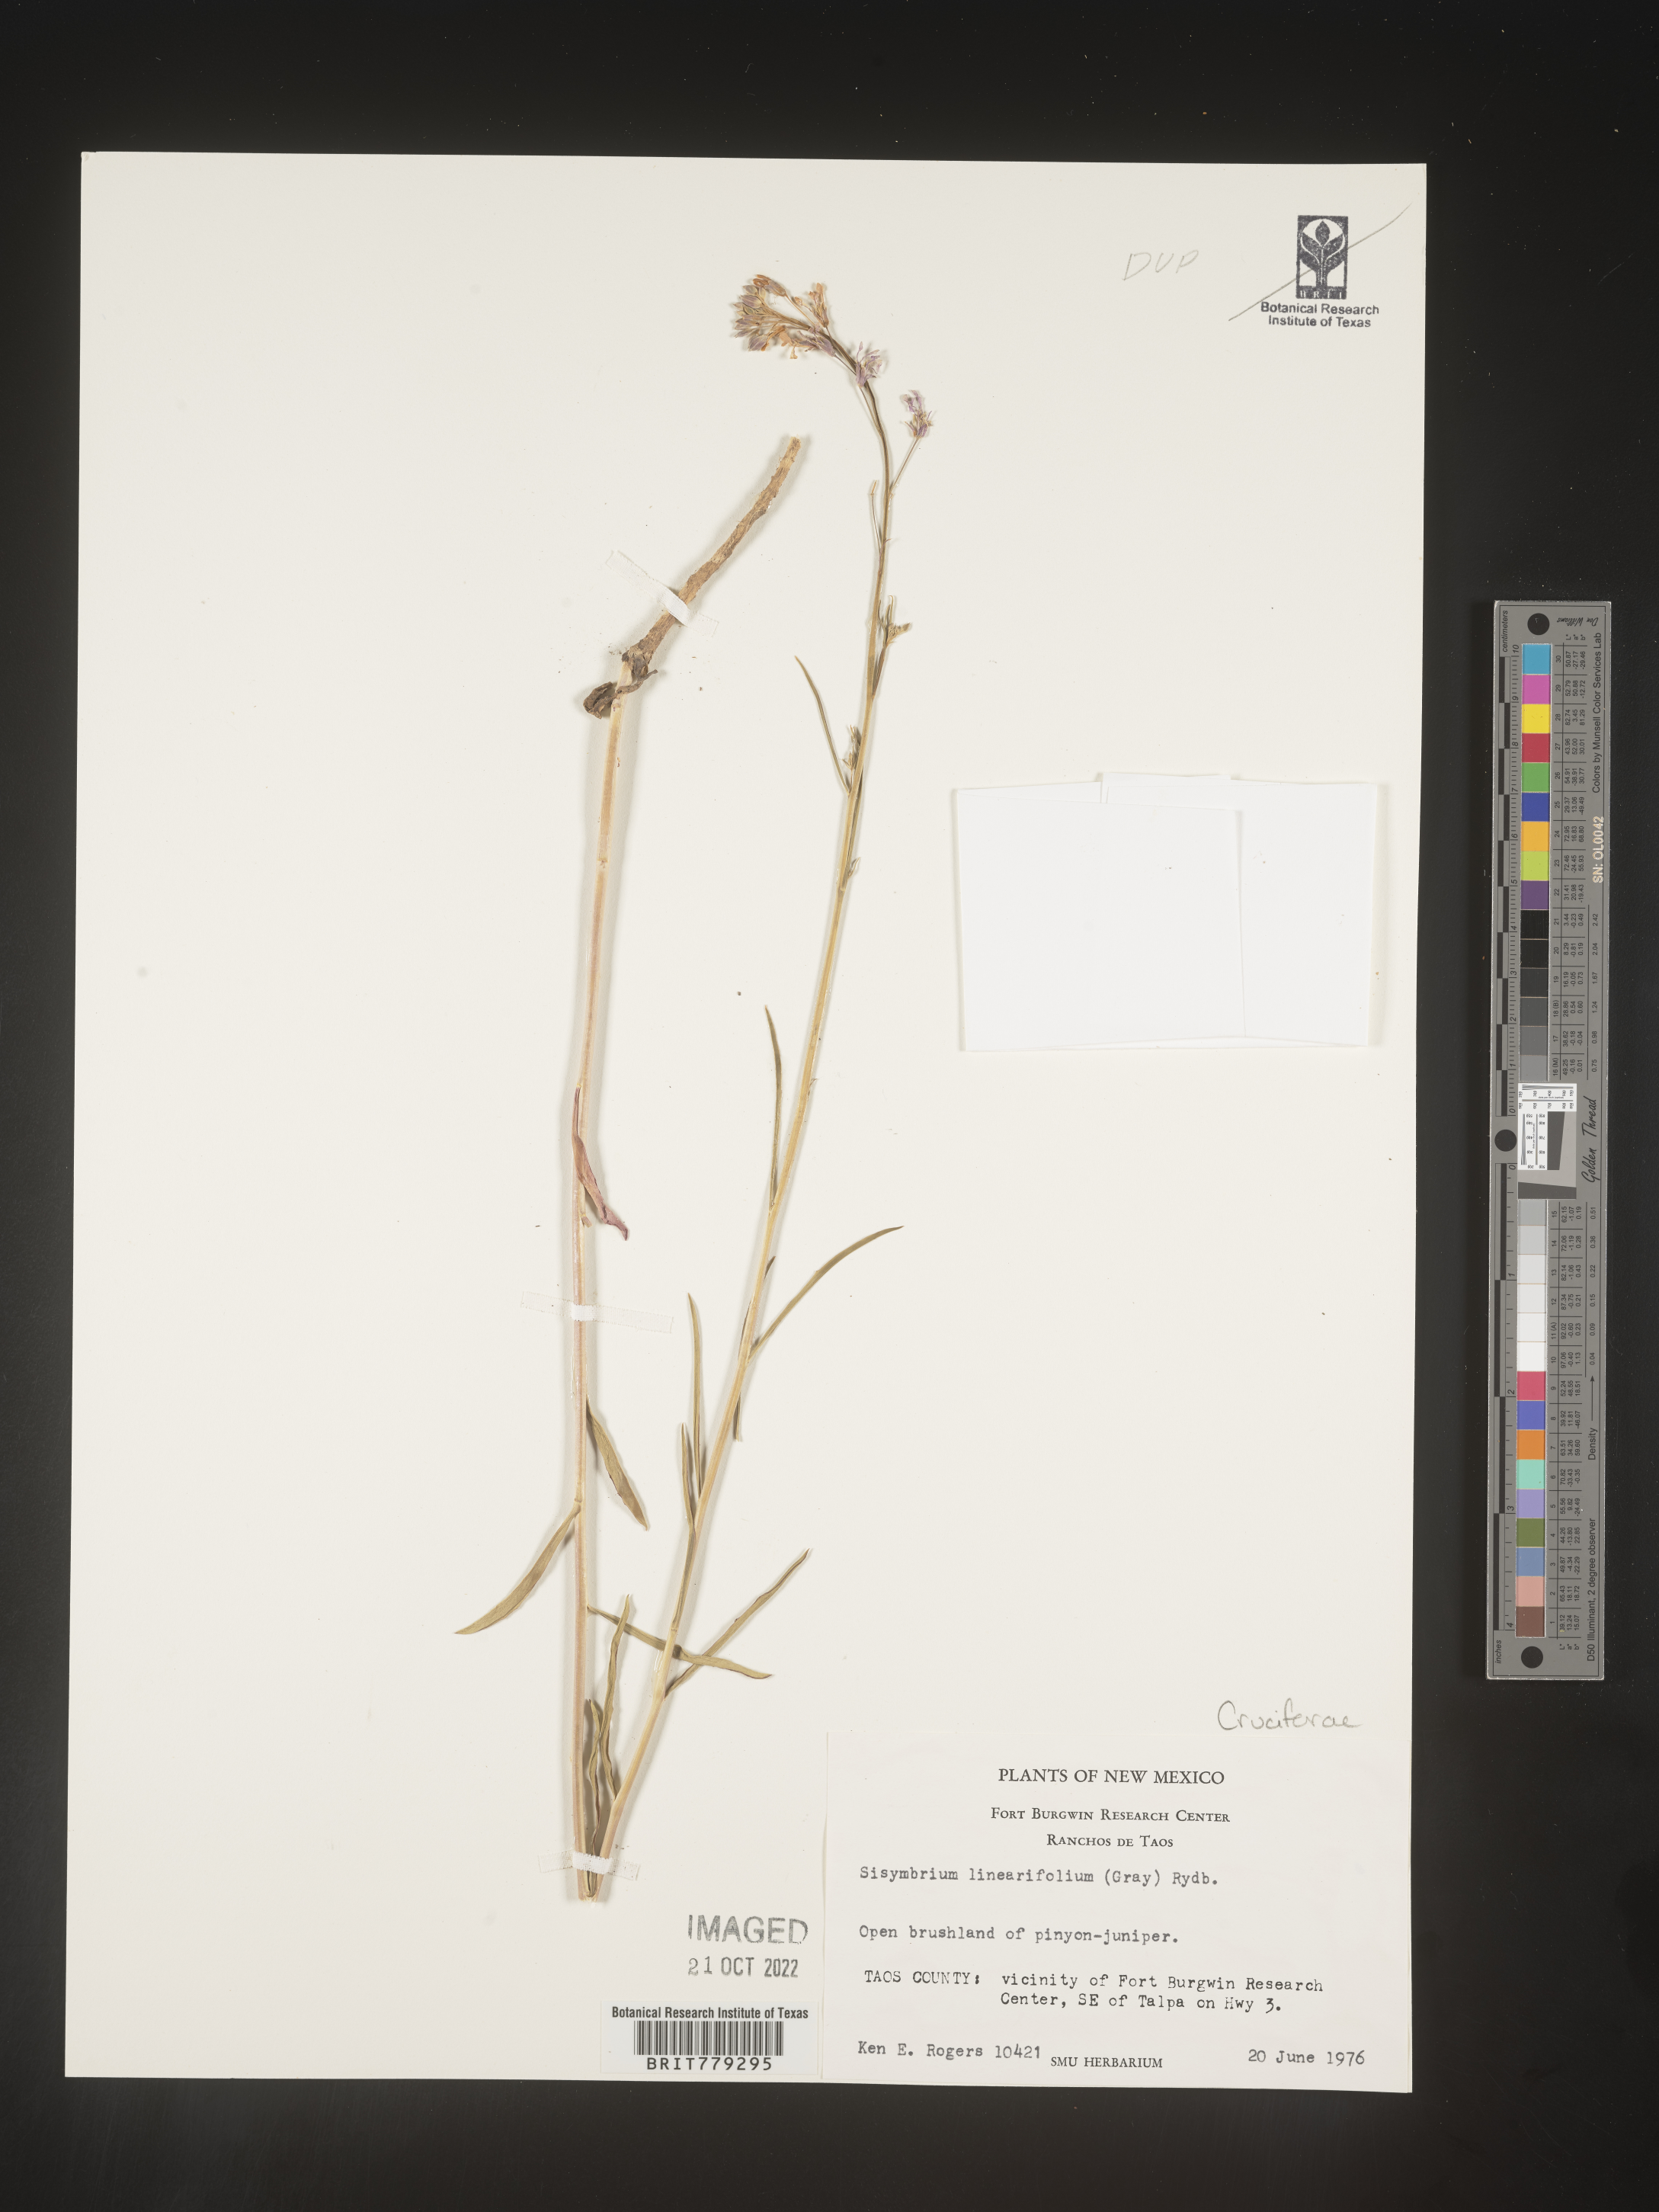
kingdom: Plantae
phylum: Tracheophyta
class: Magnoliopsida
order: Brassicales
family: Brassicaceae
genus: Sisymbrium
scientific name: Sisymbrium
